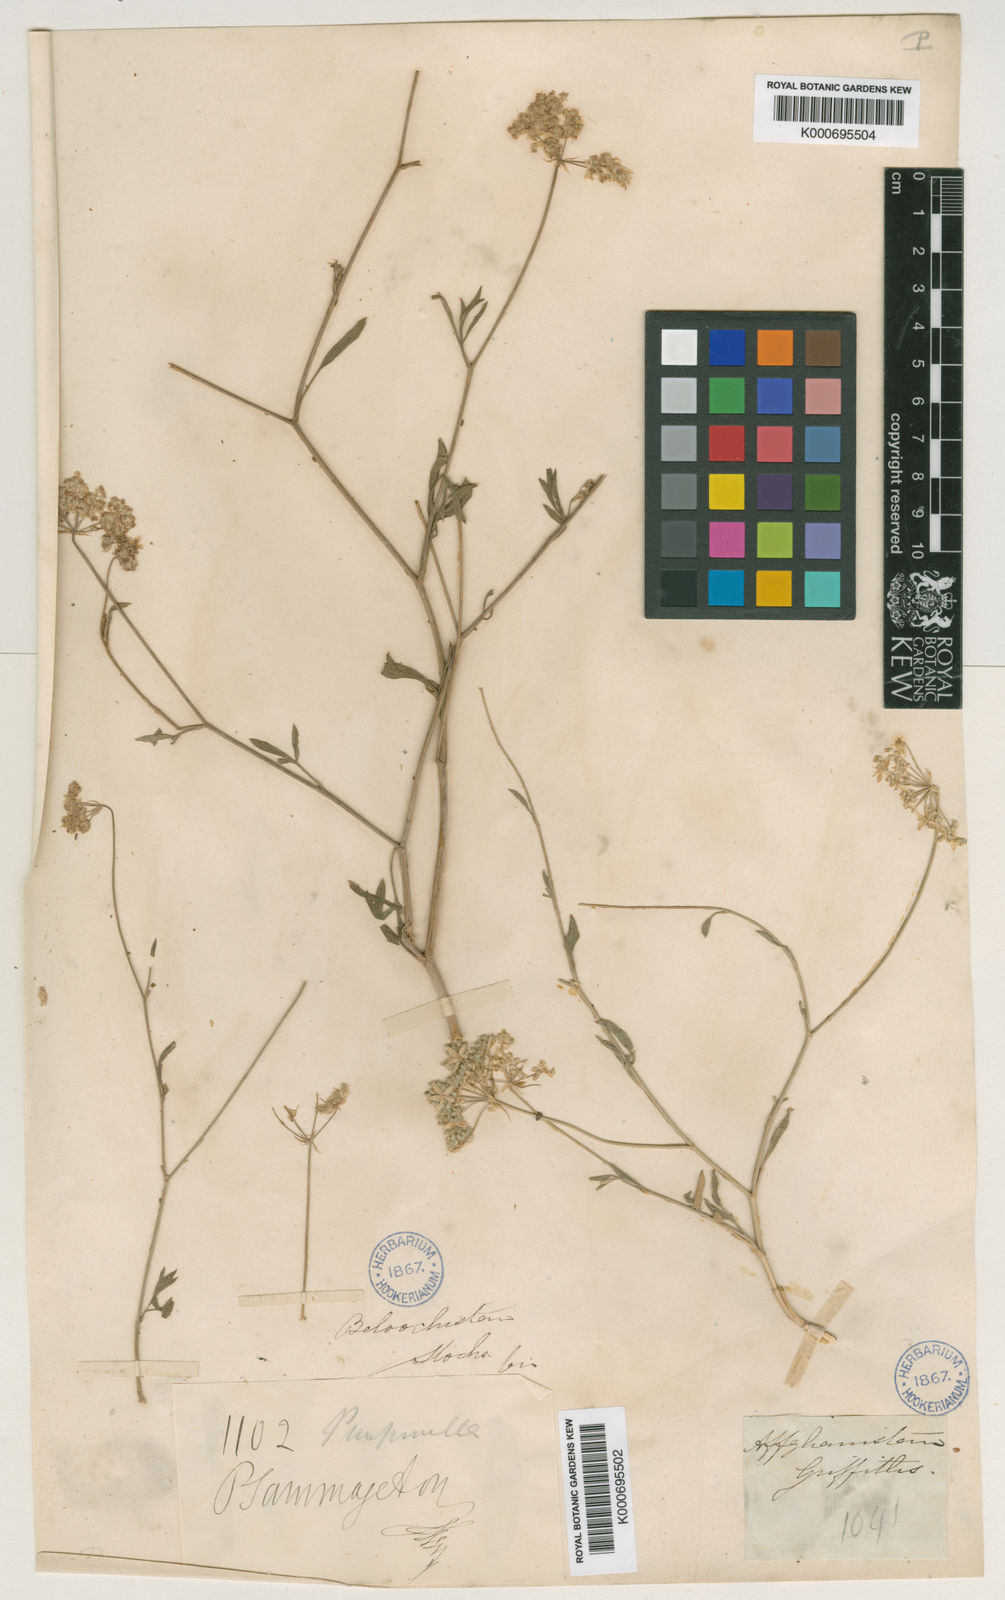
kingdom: Plantae
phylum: Tracheophyta
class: Magnoliopsida
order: Apiales
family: Apiaceae
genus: Psammogeton
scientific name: Psammogeton
